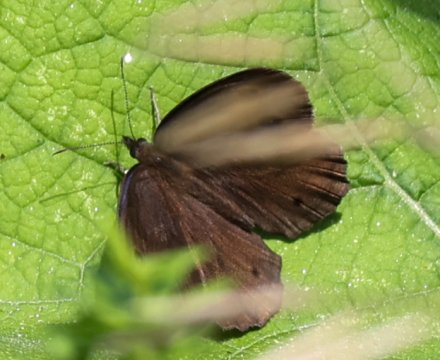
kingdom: Animalia
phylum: Arthropoda
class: Insecta
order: Lepidoptera
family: Nymphalidae
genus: Cercyonis
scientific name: Cercyonis pegala
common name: Common Wood-Nymph
